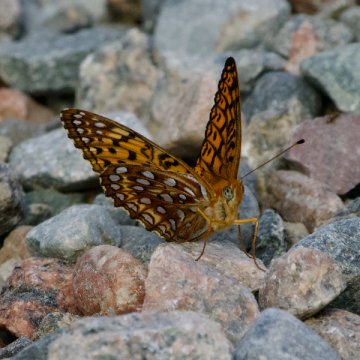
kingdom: Animalia
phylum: Arthropoda
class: Insecta
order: Lepidoptera
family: Nymphalidae
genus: Speyeria
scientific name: Speyeria atlantis
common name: Atlantis Fritillary
